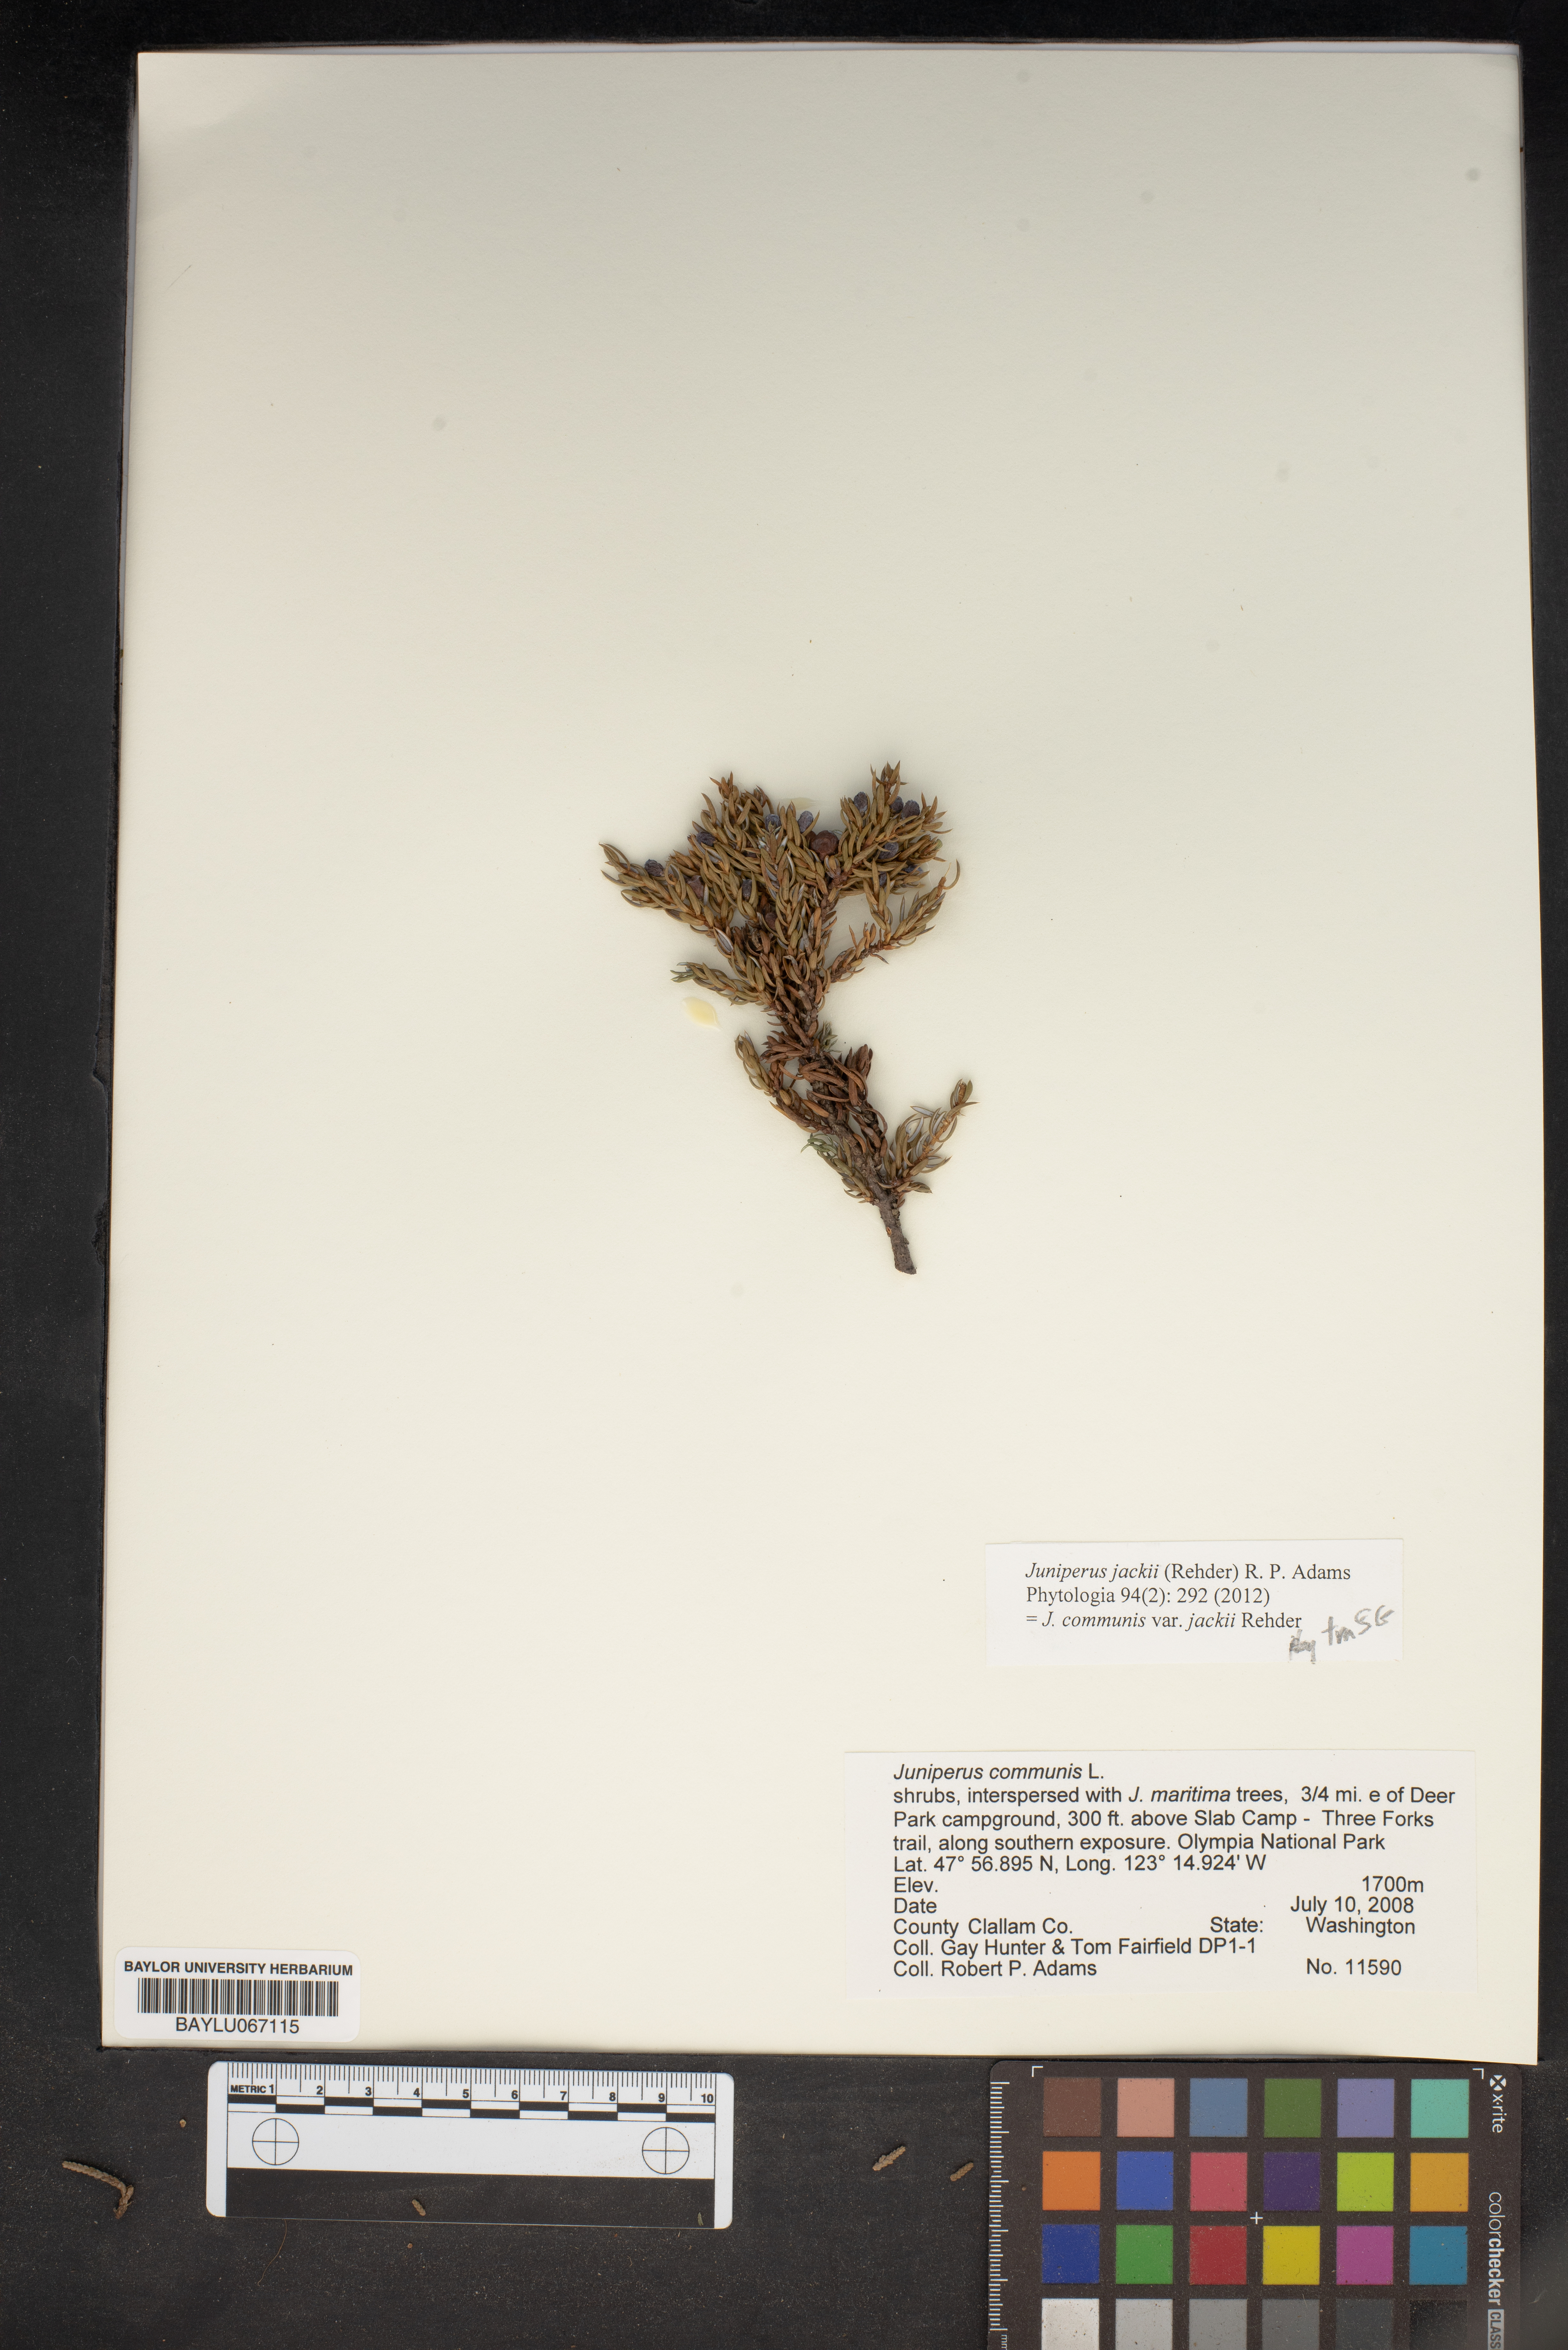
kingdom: Plantae
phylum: Tracheophyta
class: Pinopsida
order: Pinales
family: Cupressaceae
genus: Juniperus
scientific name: Juniperus communis
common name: Common juniper
